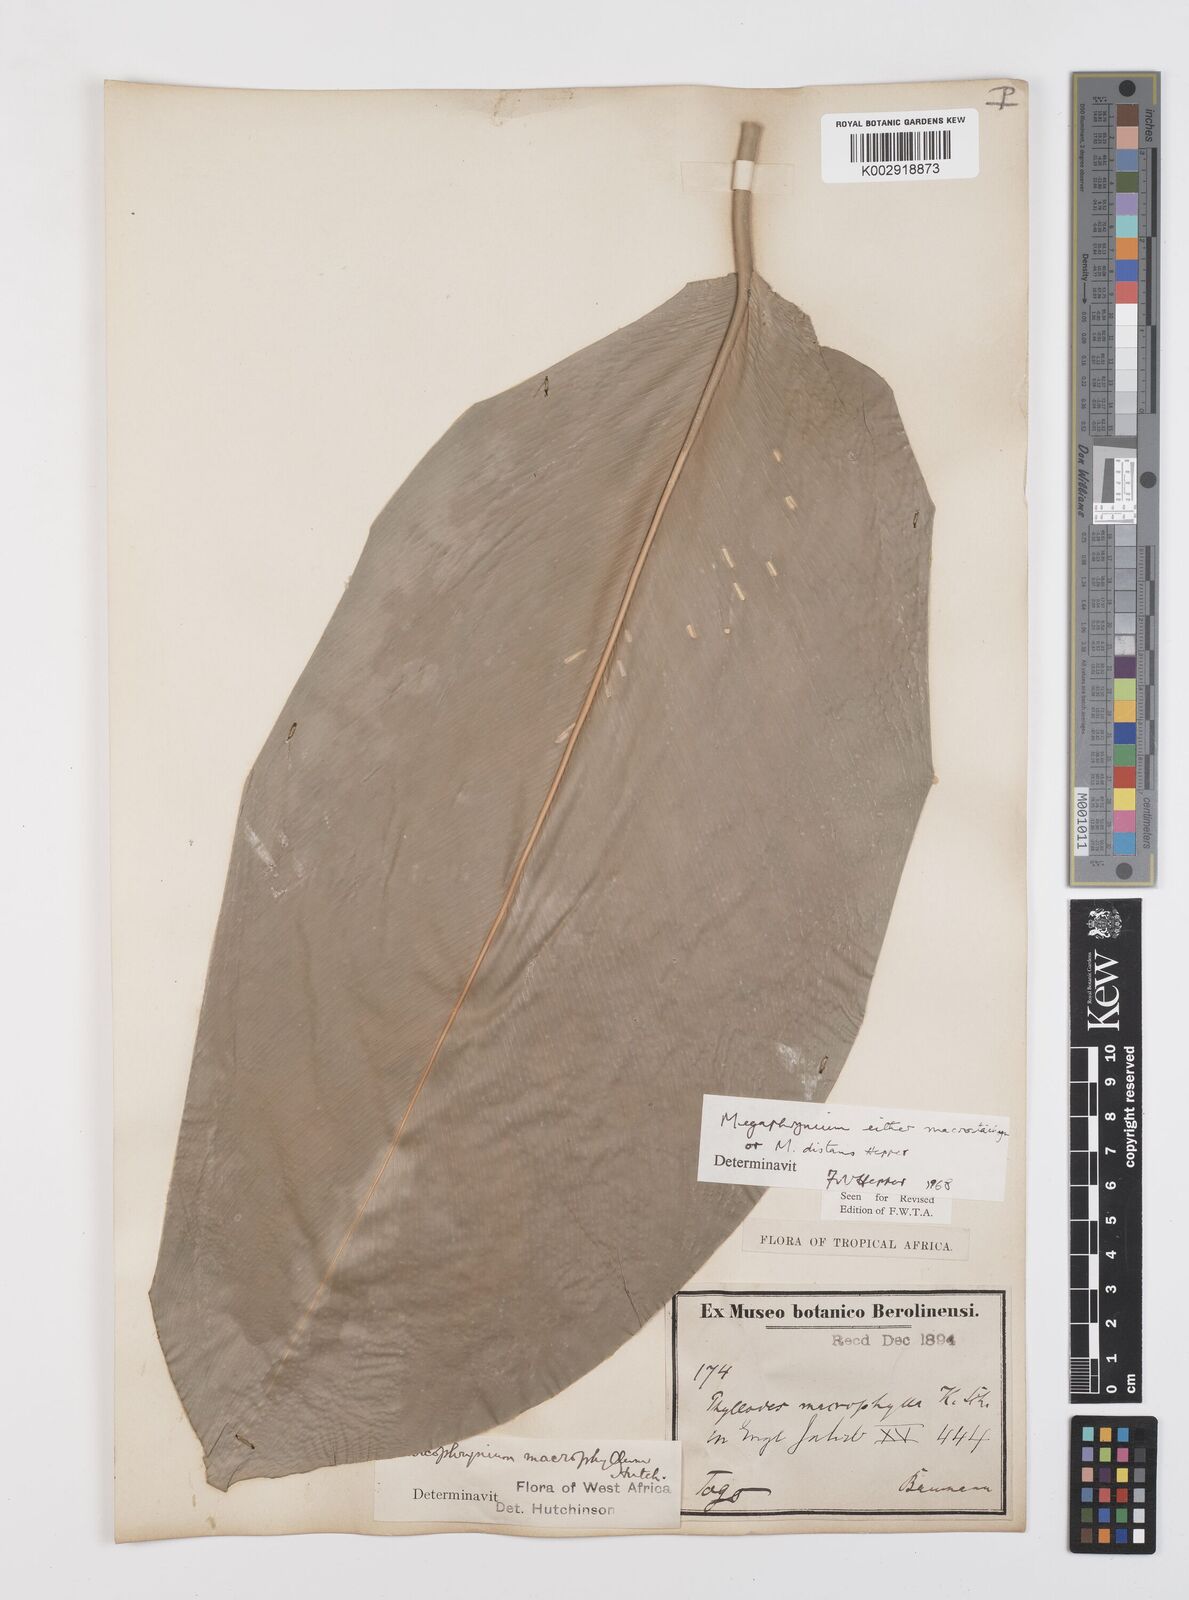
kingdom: Plantae
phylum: Tracheophyta
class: Liliopsida
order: Zingiberales
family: Marantaceae
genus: Megaphrynium
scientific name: Megaphrynium macrostachyum
